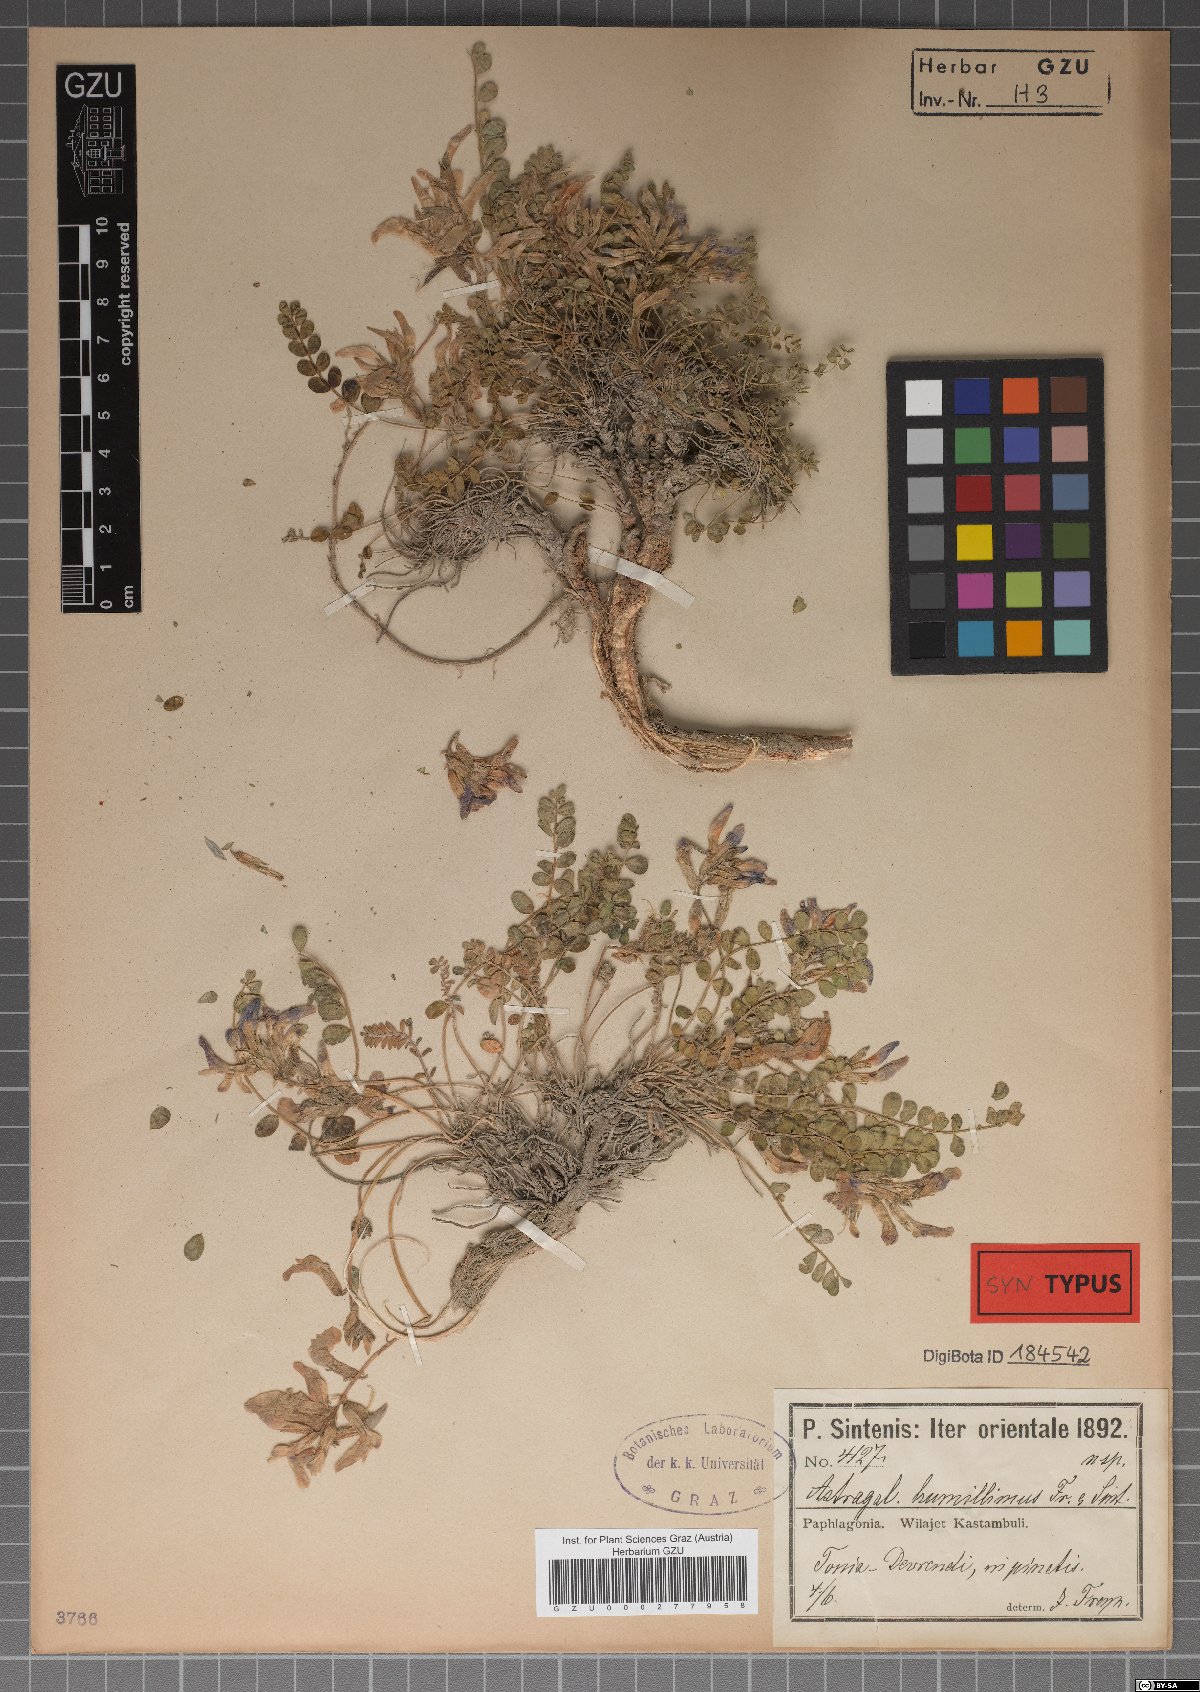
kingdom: Plantae
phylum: Tracheophyta
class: Magnoliopsida
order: Fabales
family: Fabaceae
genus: Astragalus
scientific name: Astragalus prosgaeus
